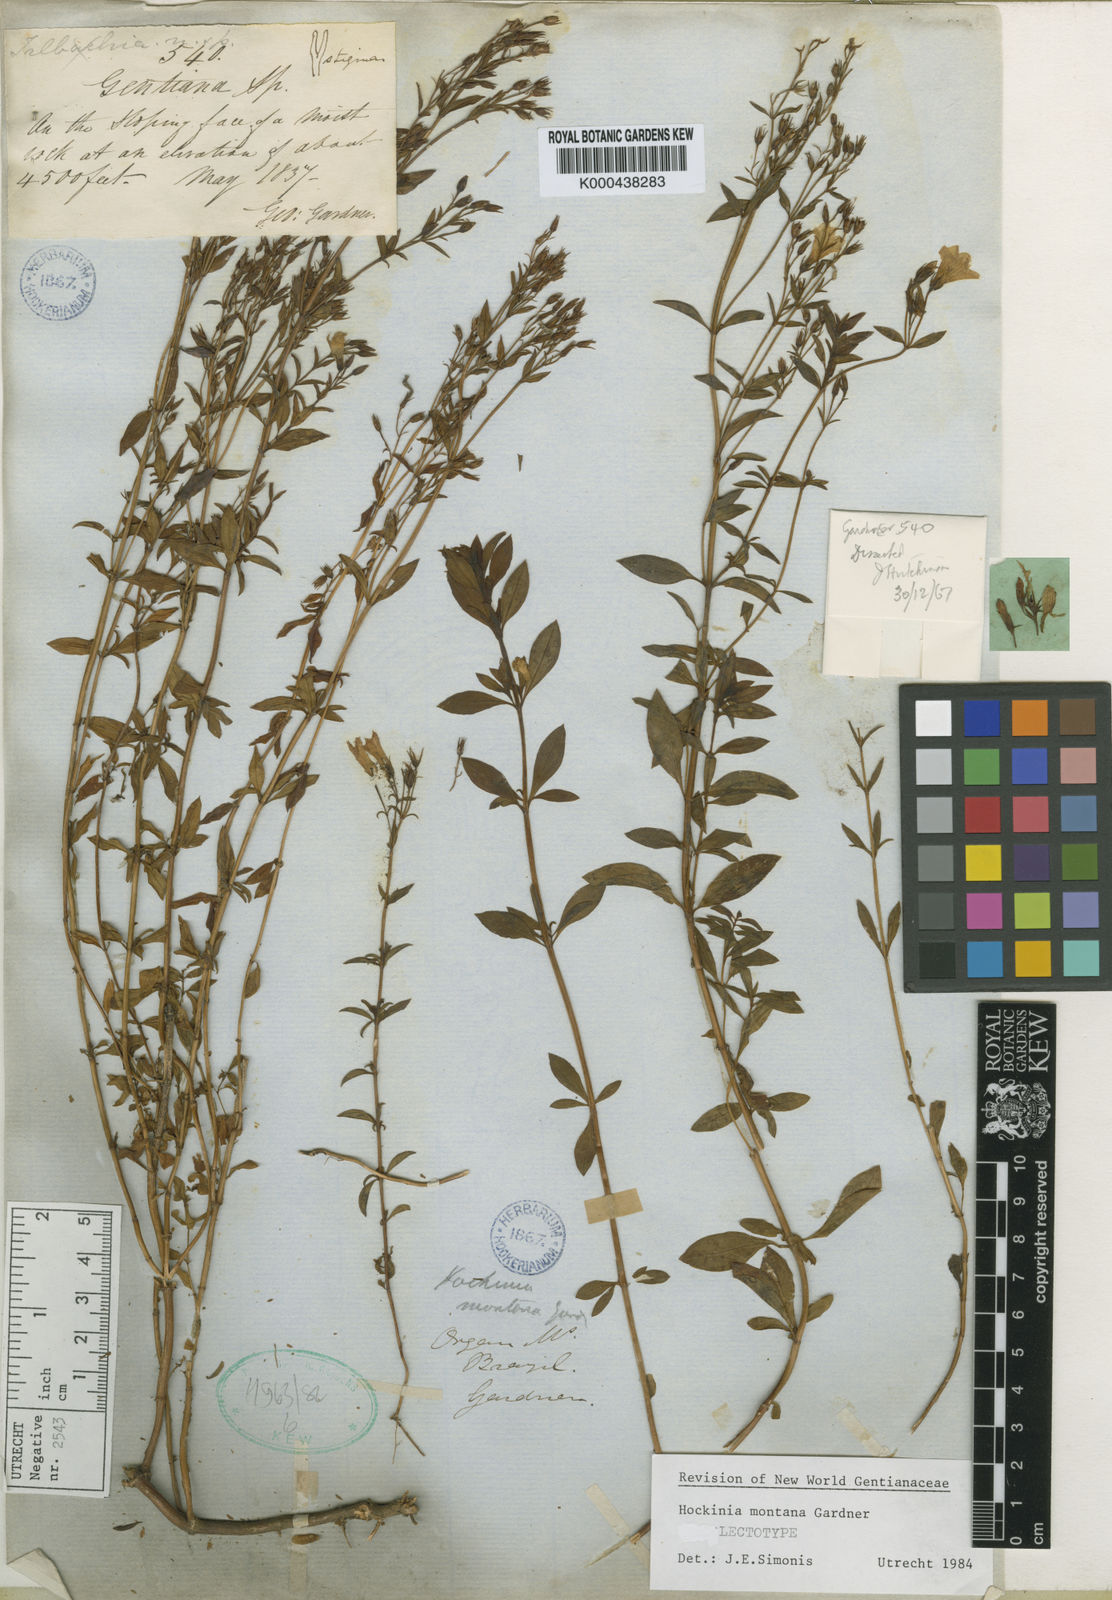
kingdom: Plantae
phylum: Tracheophyta
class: Magnoliopsida
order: Gentianales
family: Gentianaceae
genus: Hockinia
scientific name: Hockinia montana
